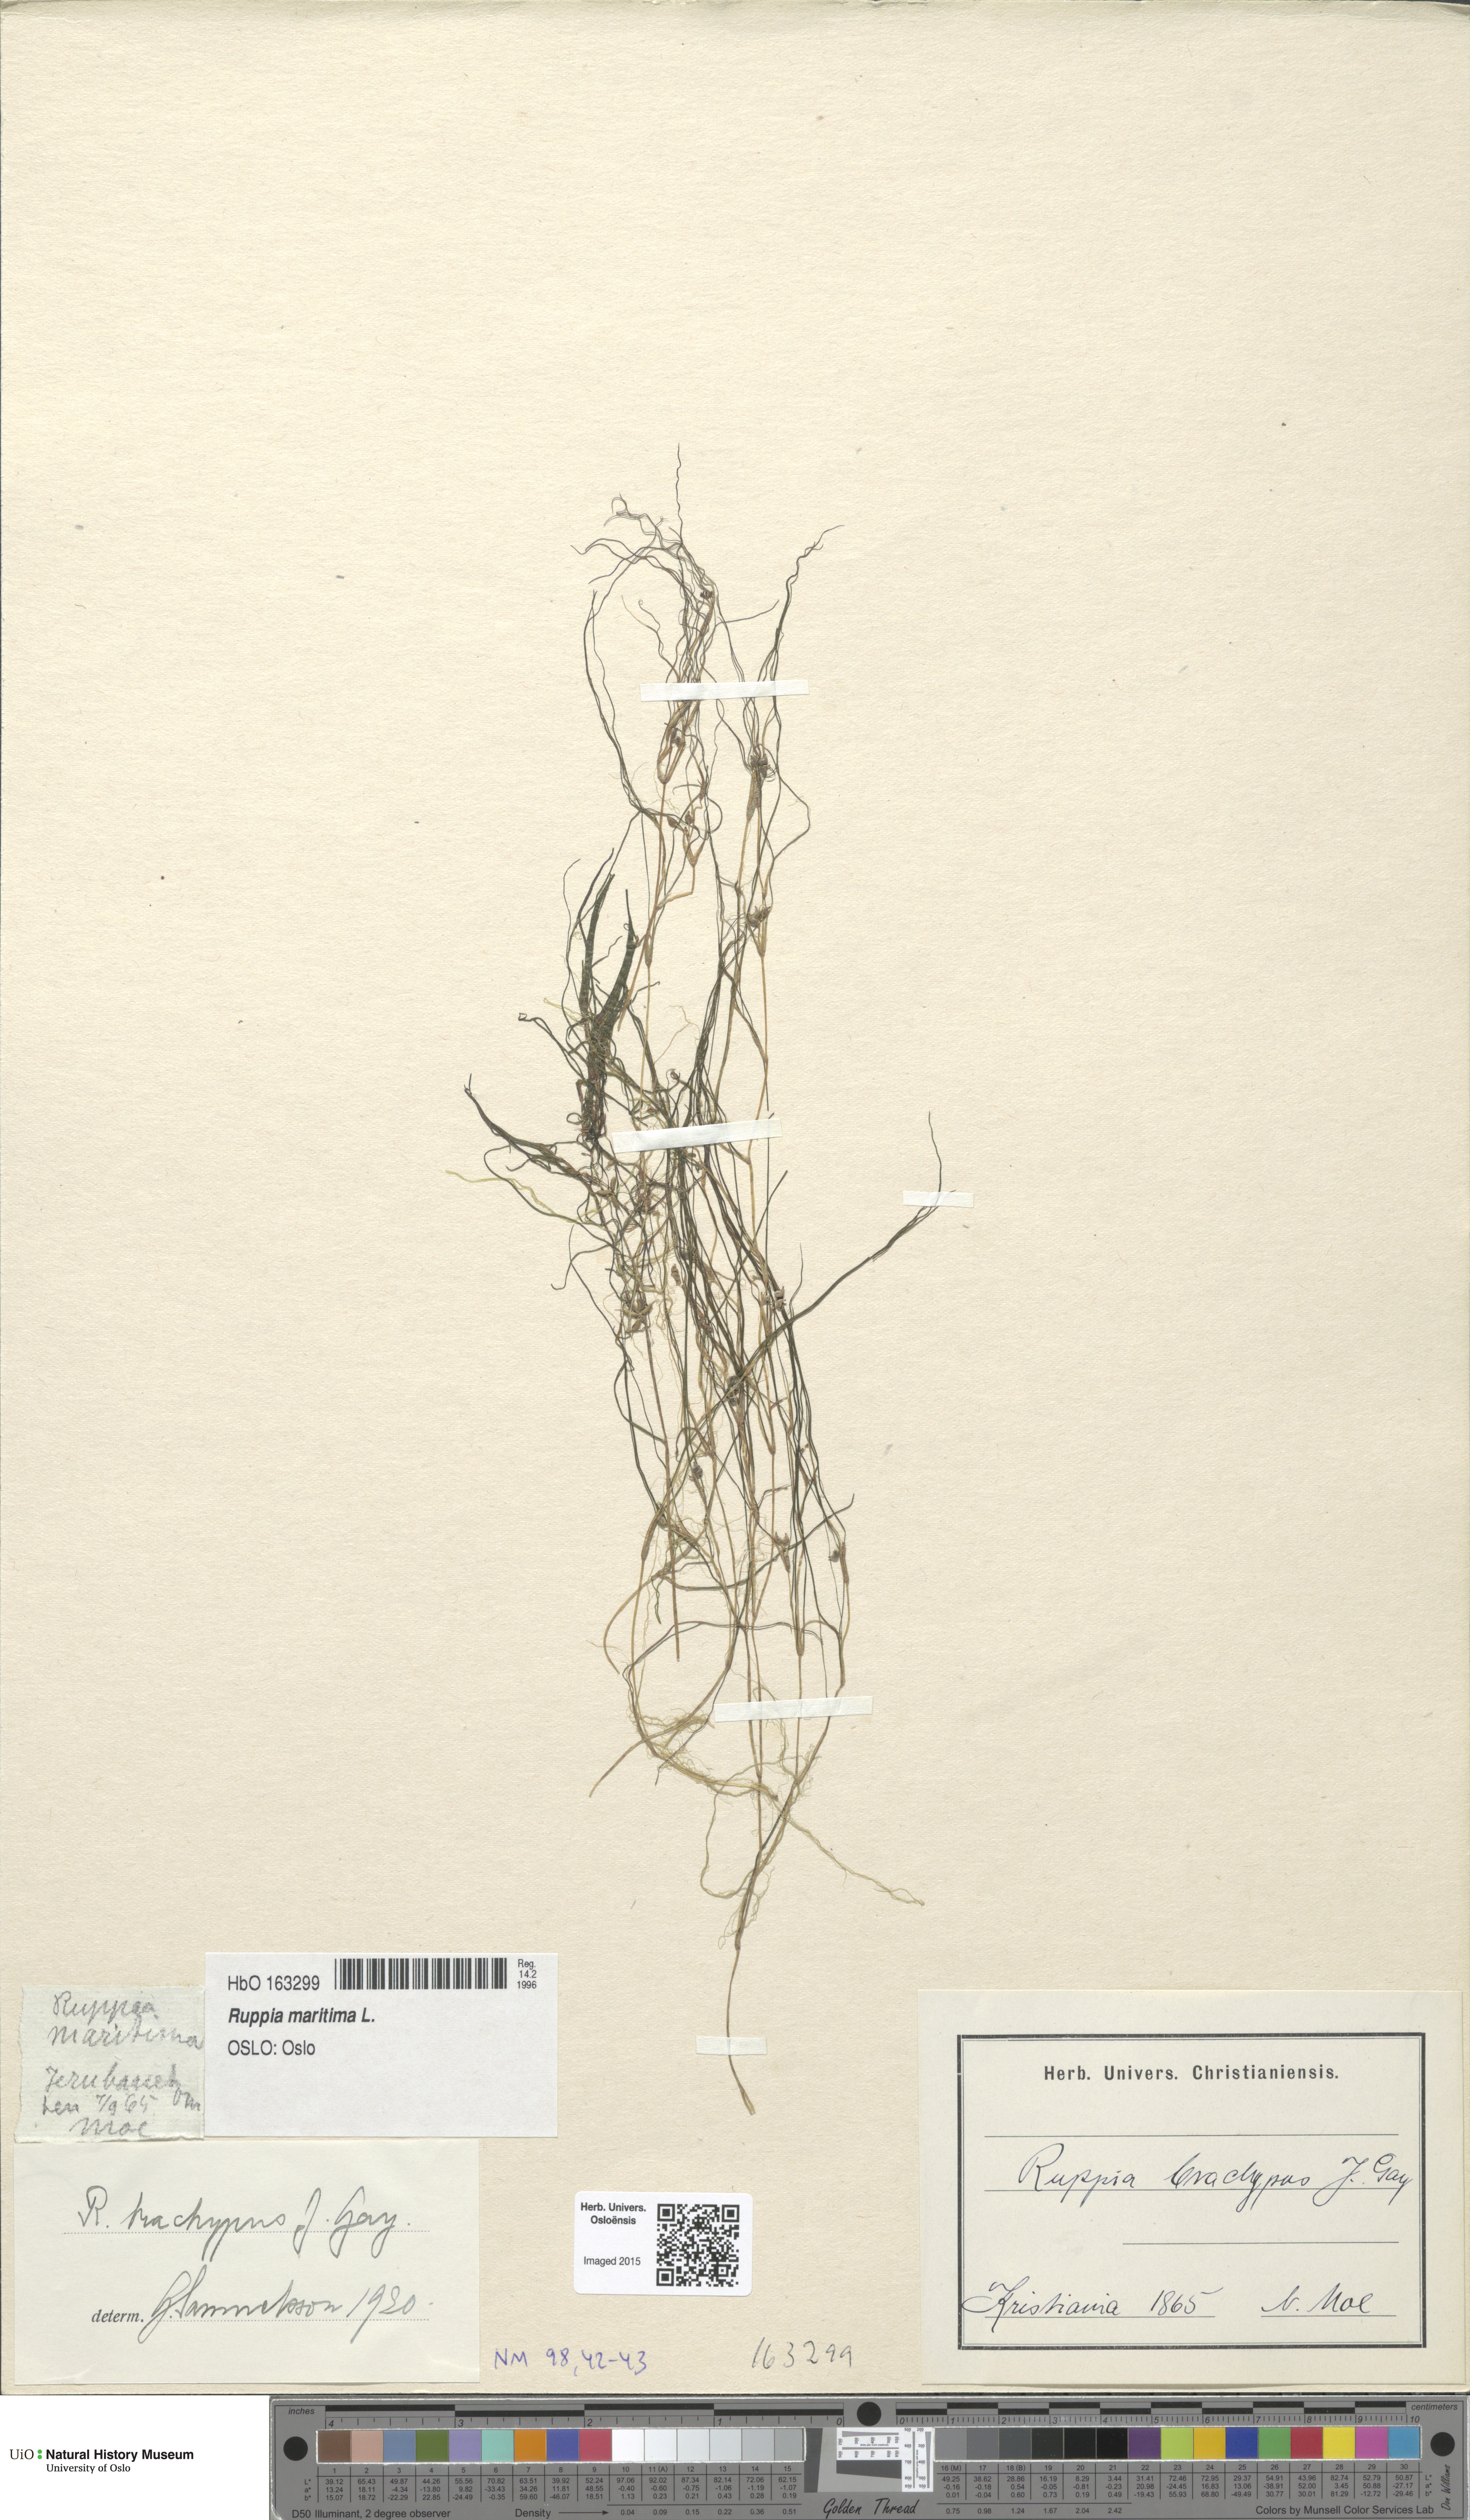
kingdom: Plantae
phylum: Tracheophyta
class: Liliopsida
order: Alismatales
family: Ruppiaceae
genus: Ruppia
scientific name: Ruppia maritima
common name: Beaked tasselweed
